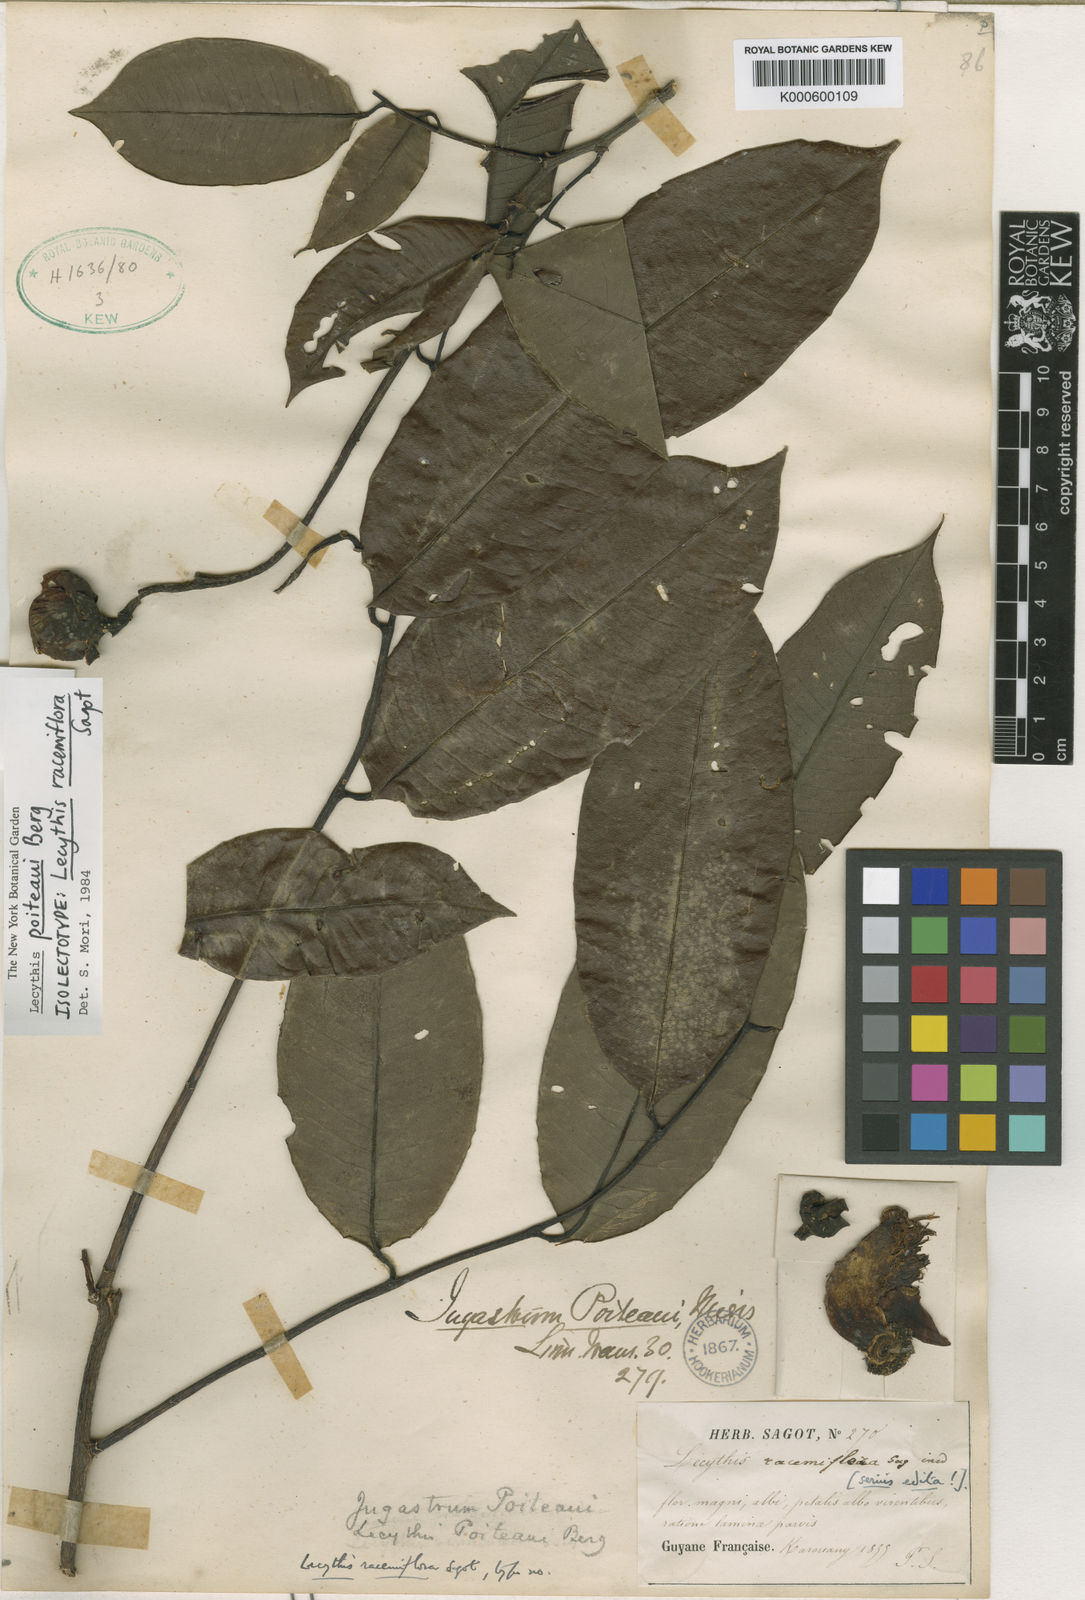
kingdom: Plantae
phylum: Tracheophyta
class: Magnoliopsida
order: Ericales
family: Lecythidaceae
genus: Lecythis
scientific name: Lecythis poiteaui
